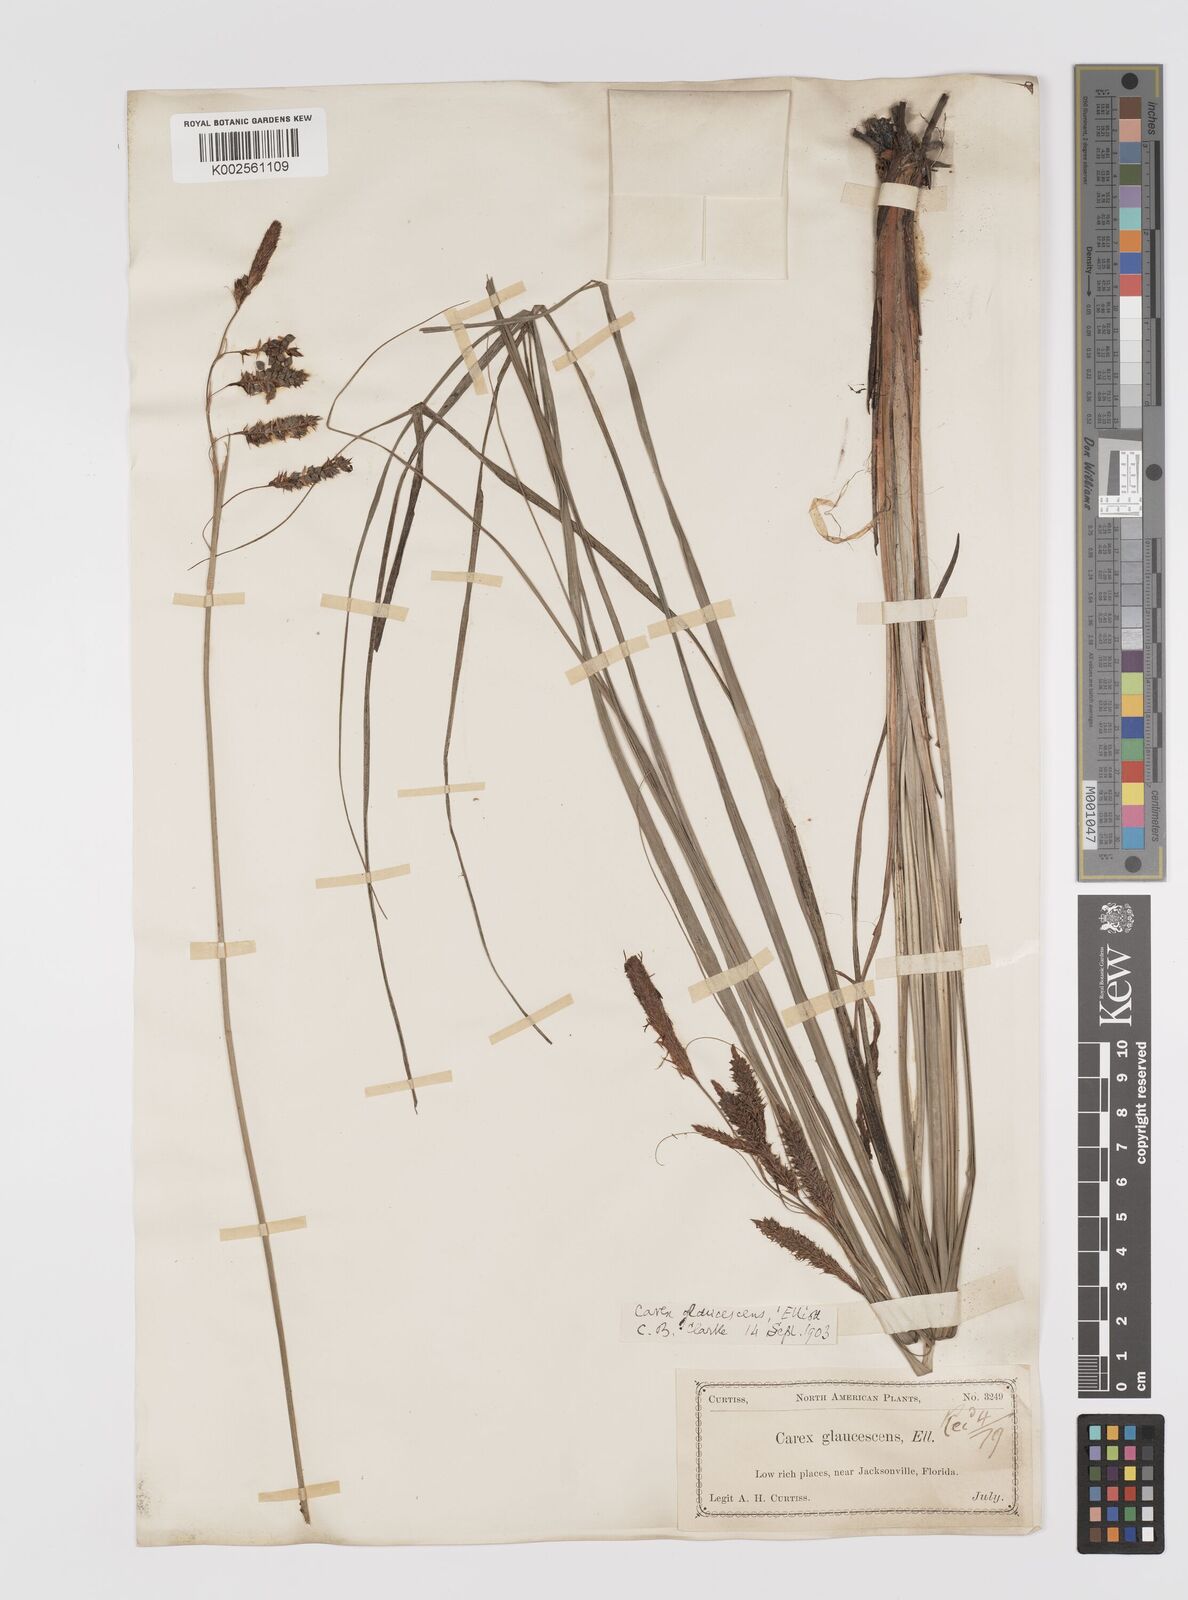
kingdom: Plantae
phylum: Tracheophyta
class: Liliopsida
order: Poales
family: Cyperaceae
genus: Carex
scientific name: Carex glaucescens
